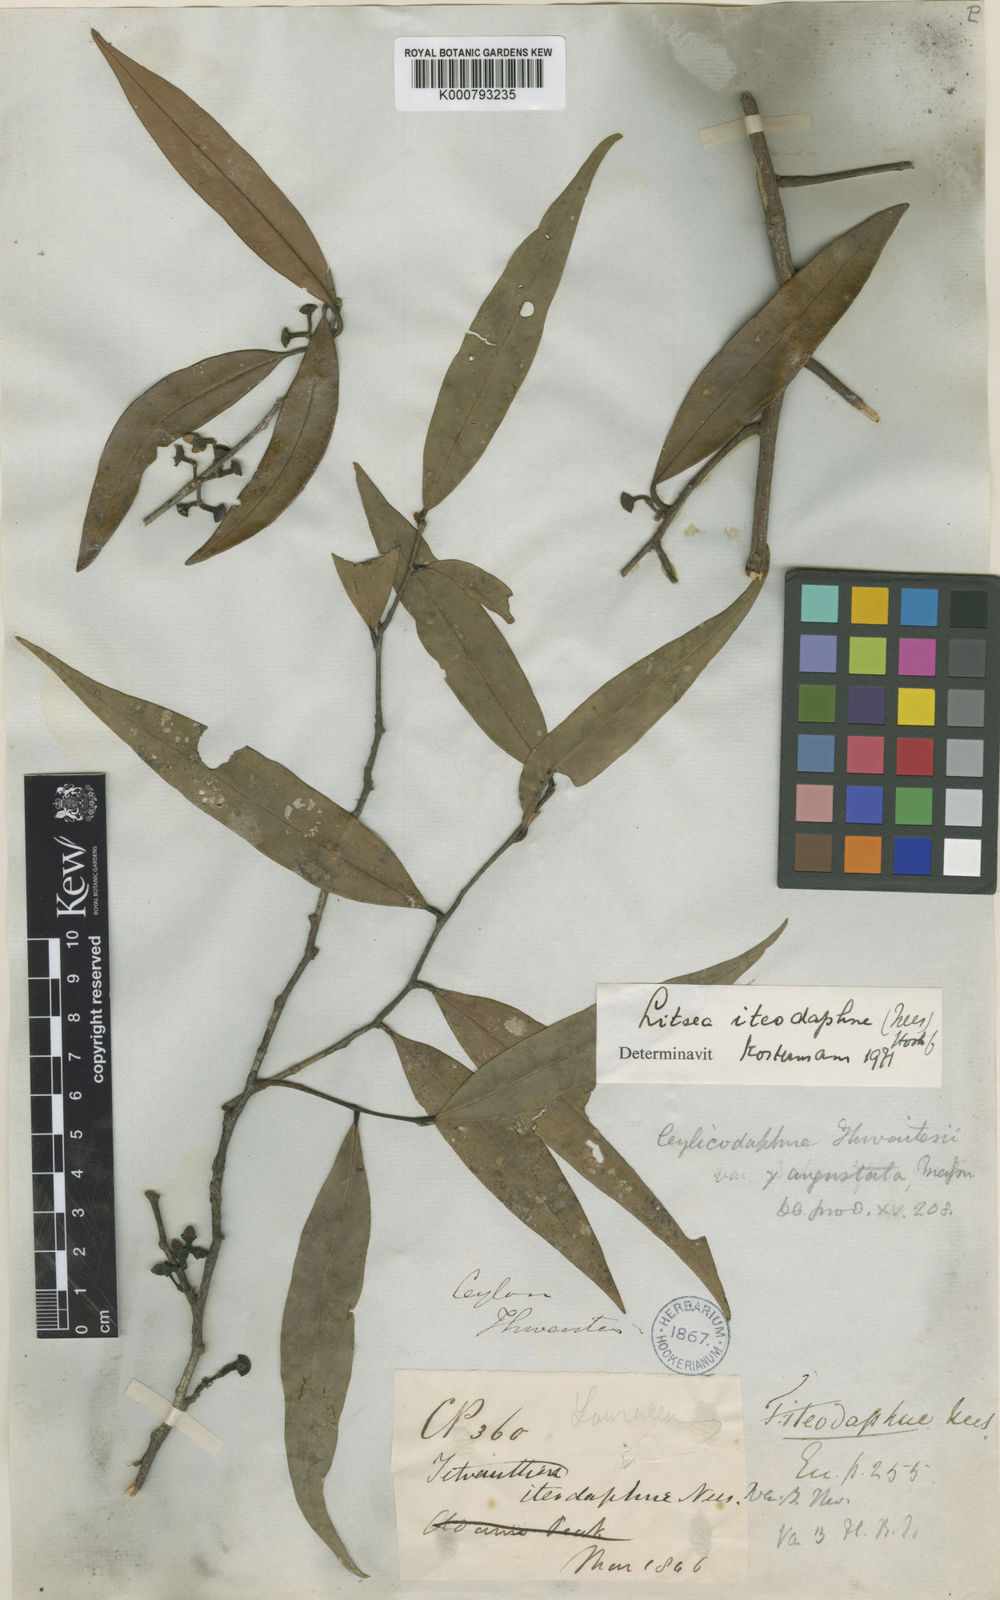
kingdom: Plantae
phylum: Tracheophyta
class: Magnoliopsida
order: Laurales
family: Lauraceae
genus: Litsea
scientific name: Litsea iteodaphne
